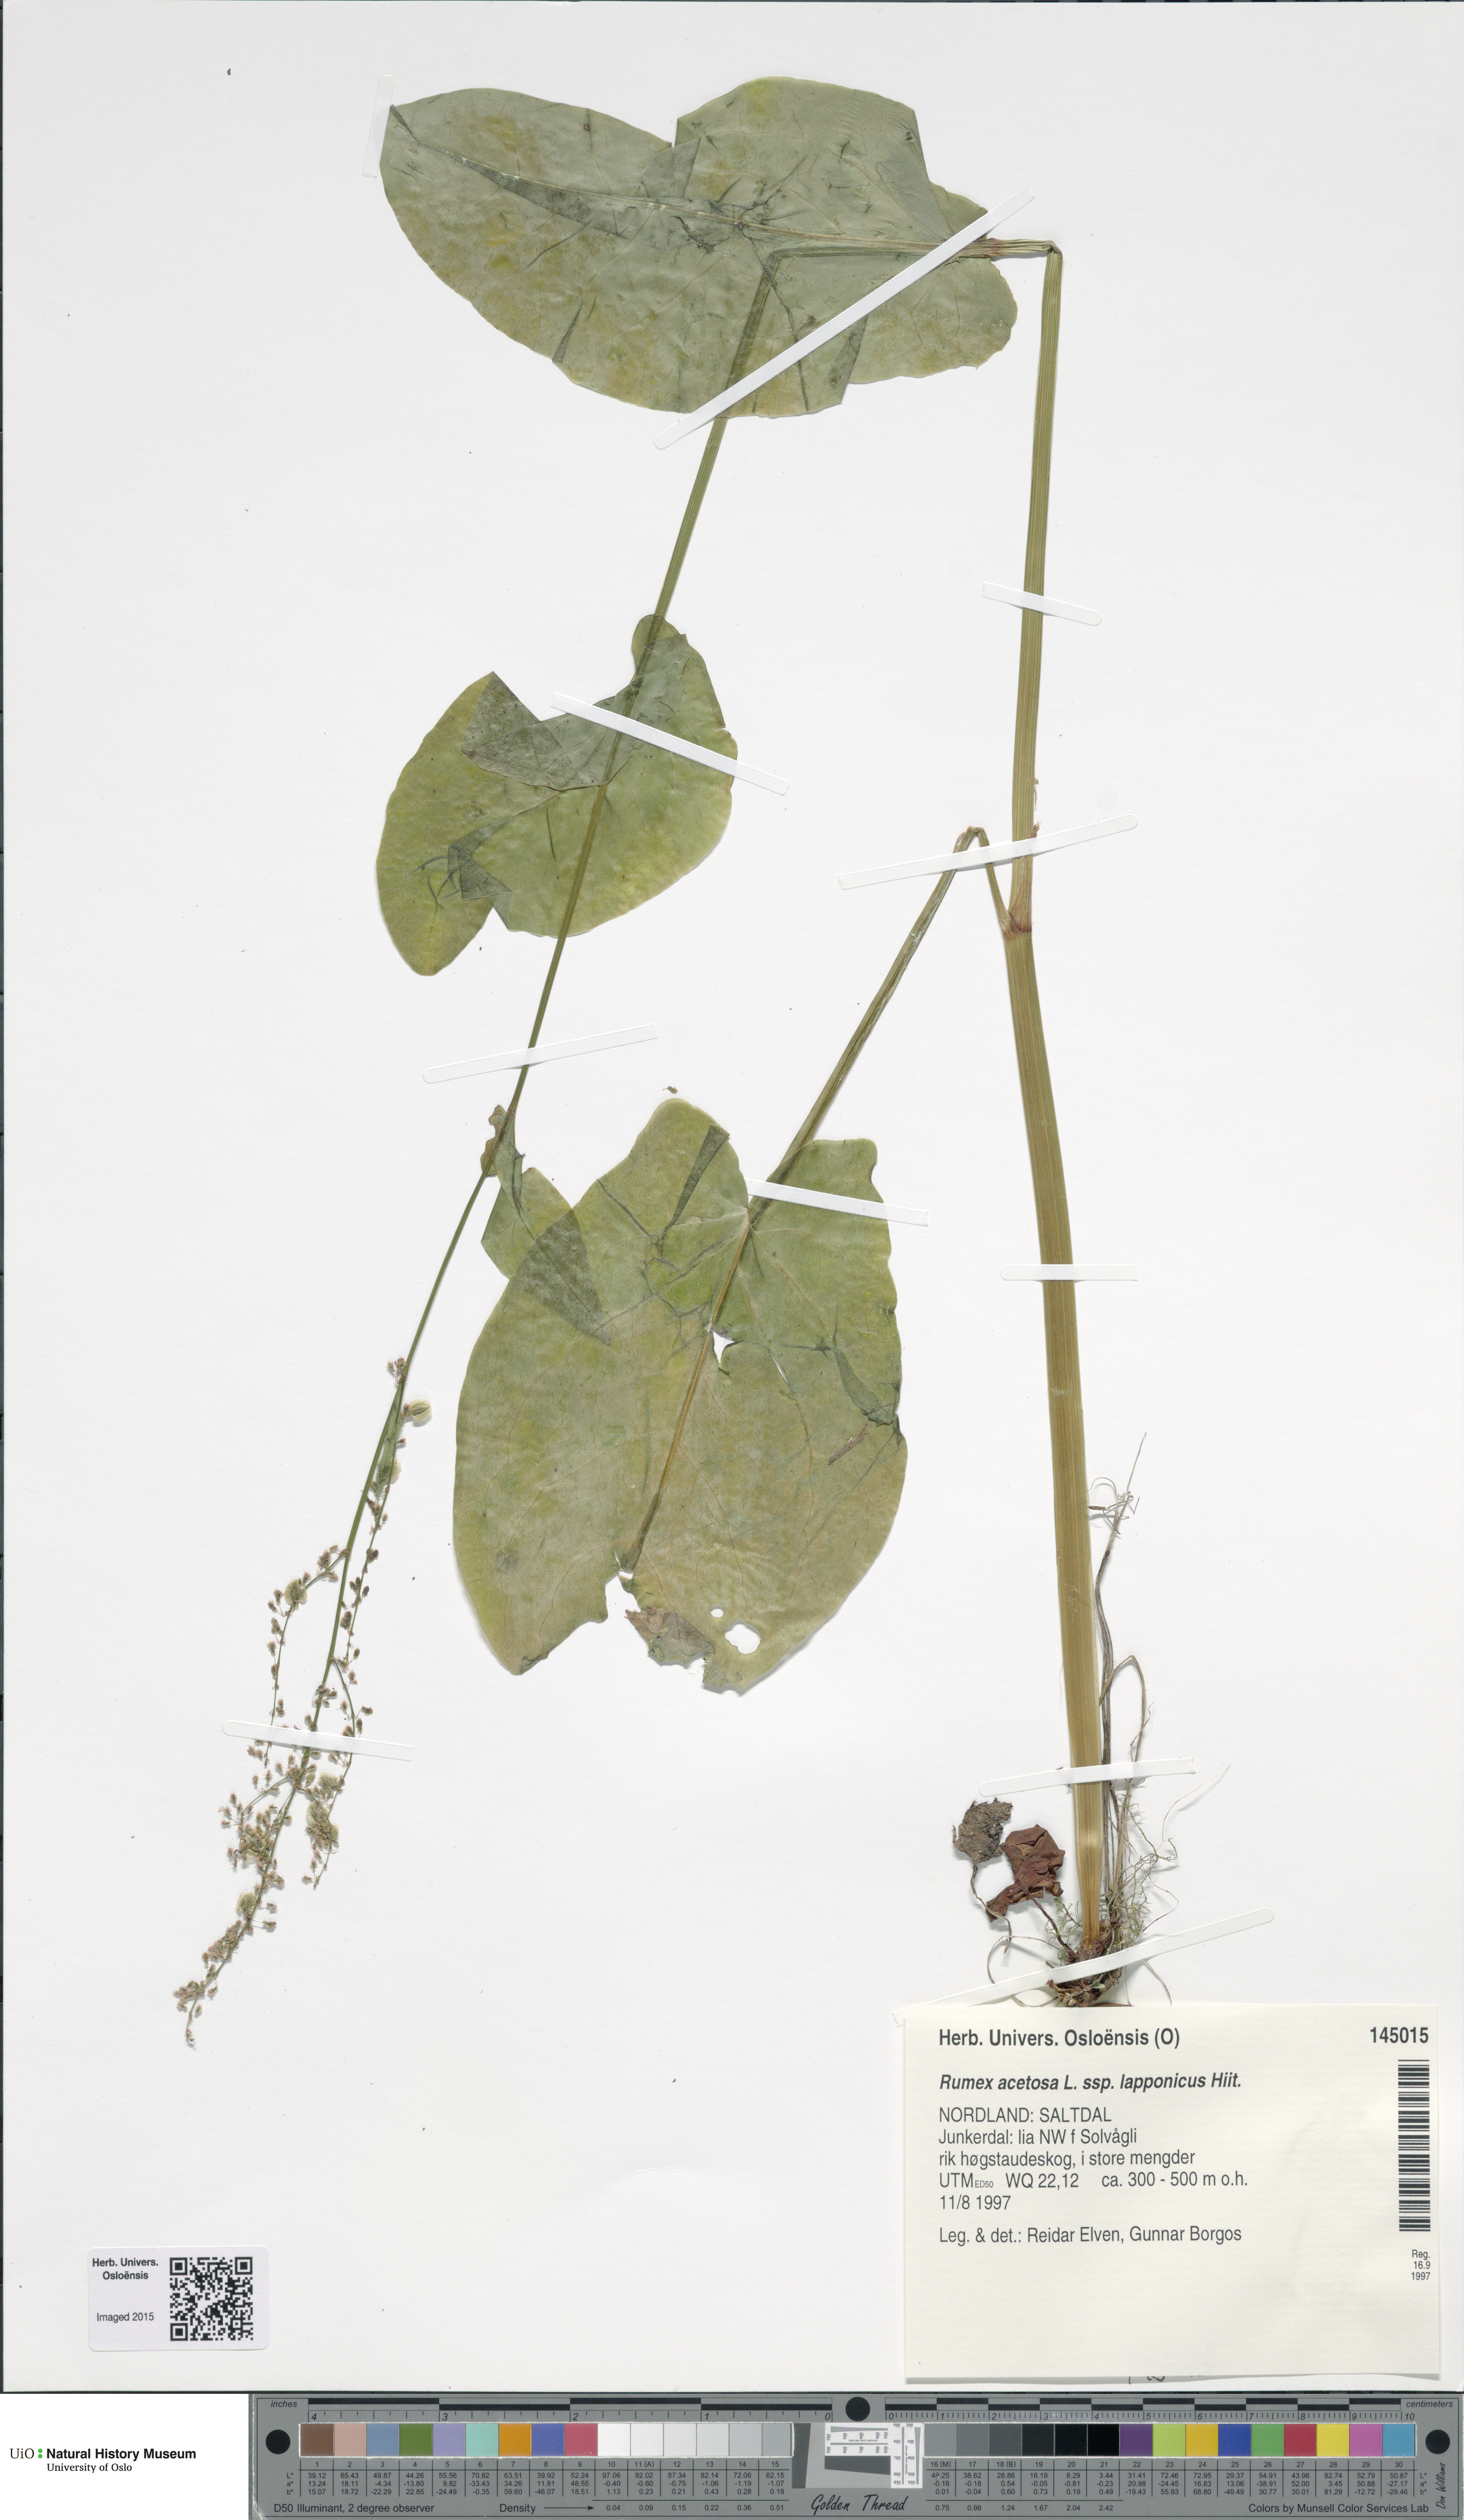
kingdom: Plantae
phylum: Tracheophyta
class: Magnoliopsida
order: Caryophyllales
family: Polygonaceae
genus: Rumex
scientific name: Rumex lapponicus
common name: Lapland mountain sorrel
